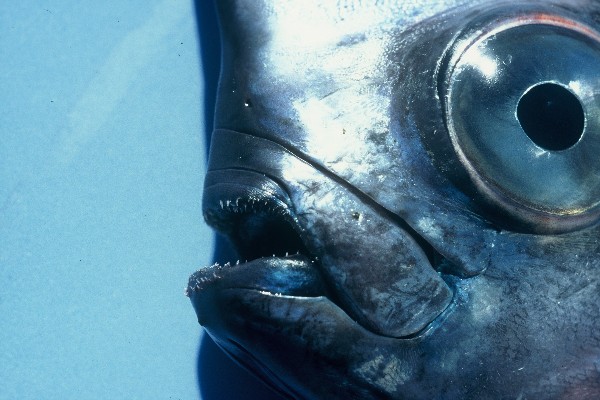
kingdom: Animalia
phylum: Chordata
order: Lampriformes
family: Lophotidae
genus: Lophotus
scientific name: Lophotus lacepede
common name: Crestfish
